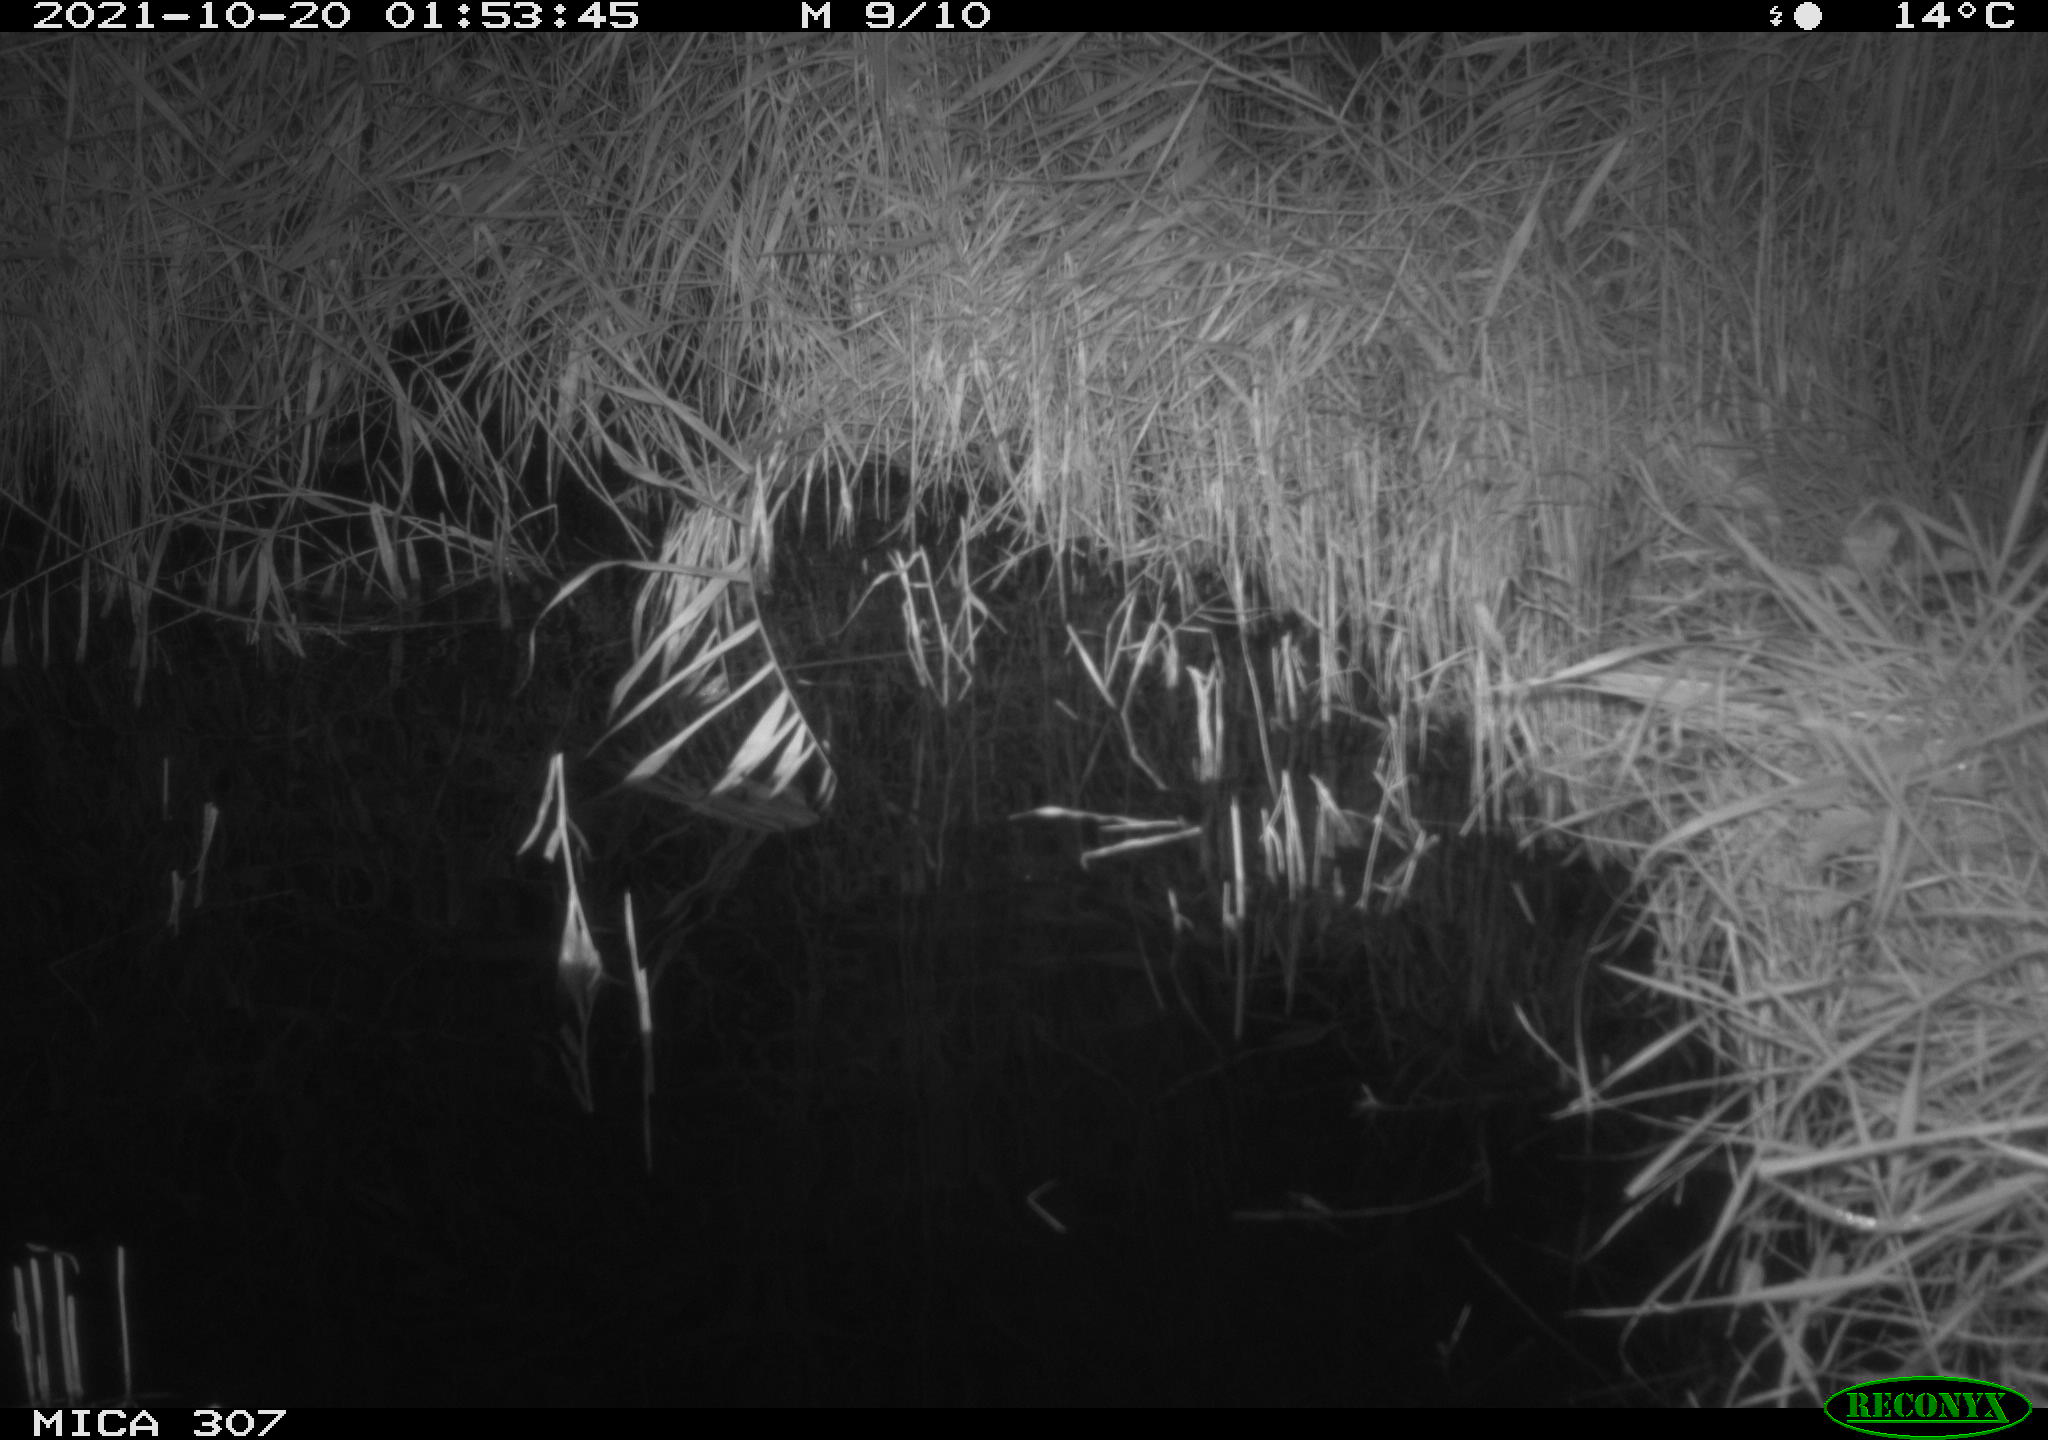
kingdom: Animalia
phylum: Chordata
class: Mammalia
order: Rodentia
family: Muridae
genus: Rattus
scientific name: Rattus norvegicus
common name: Brown rat
